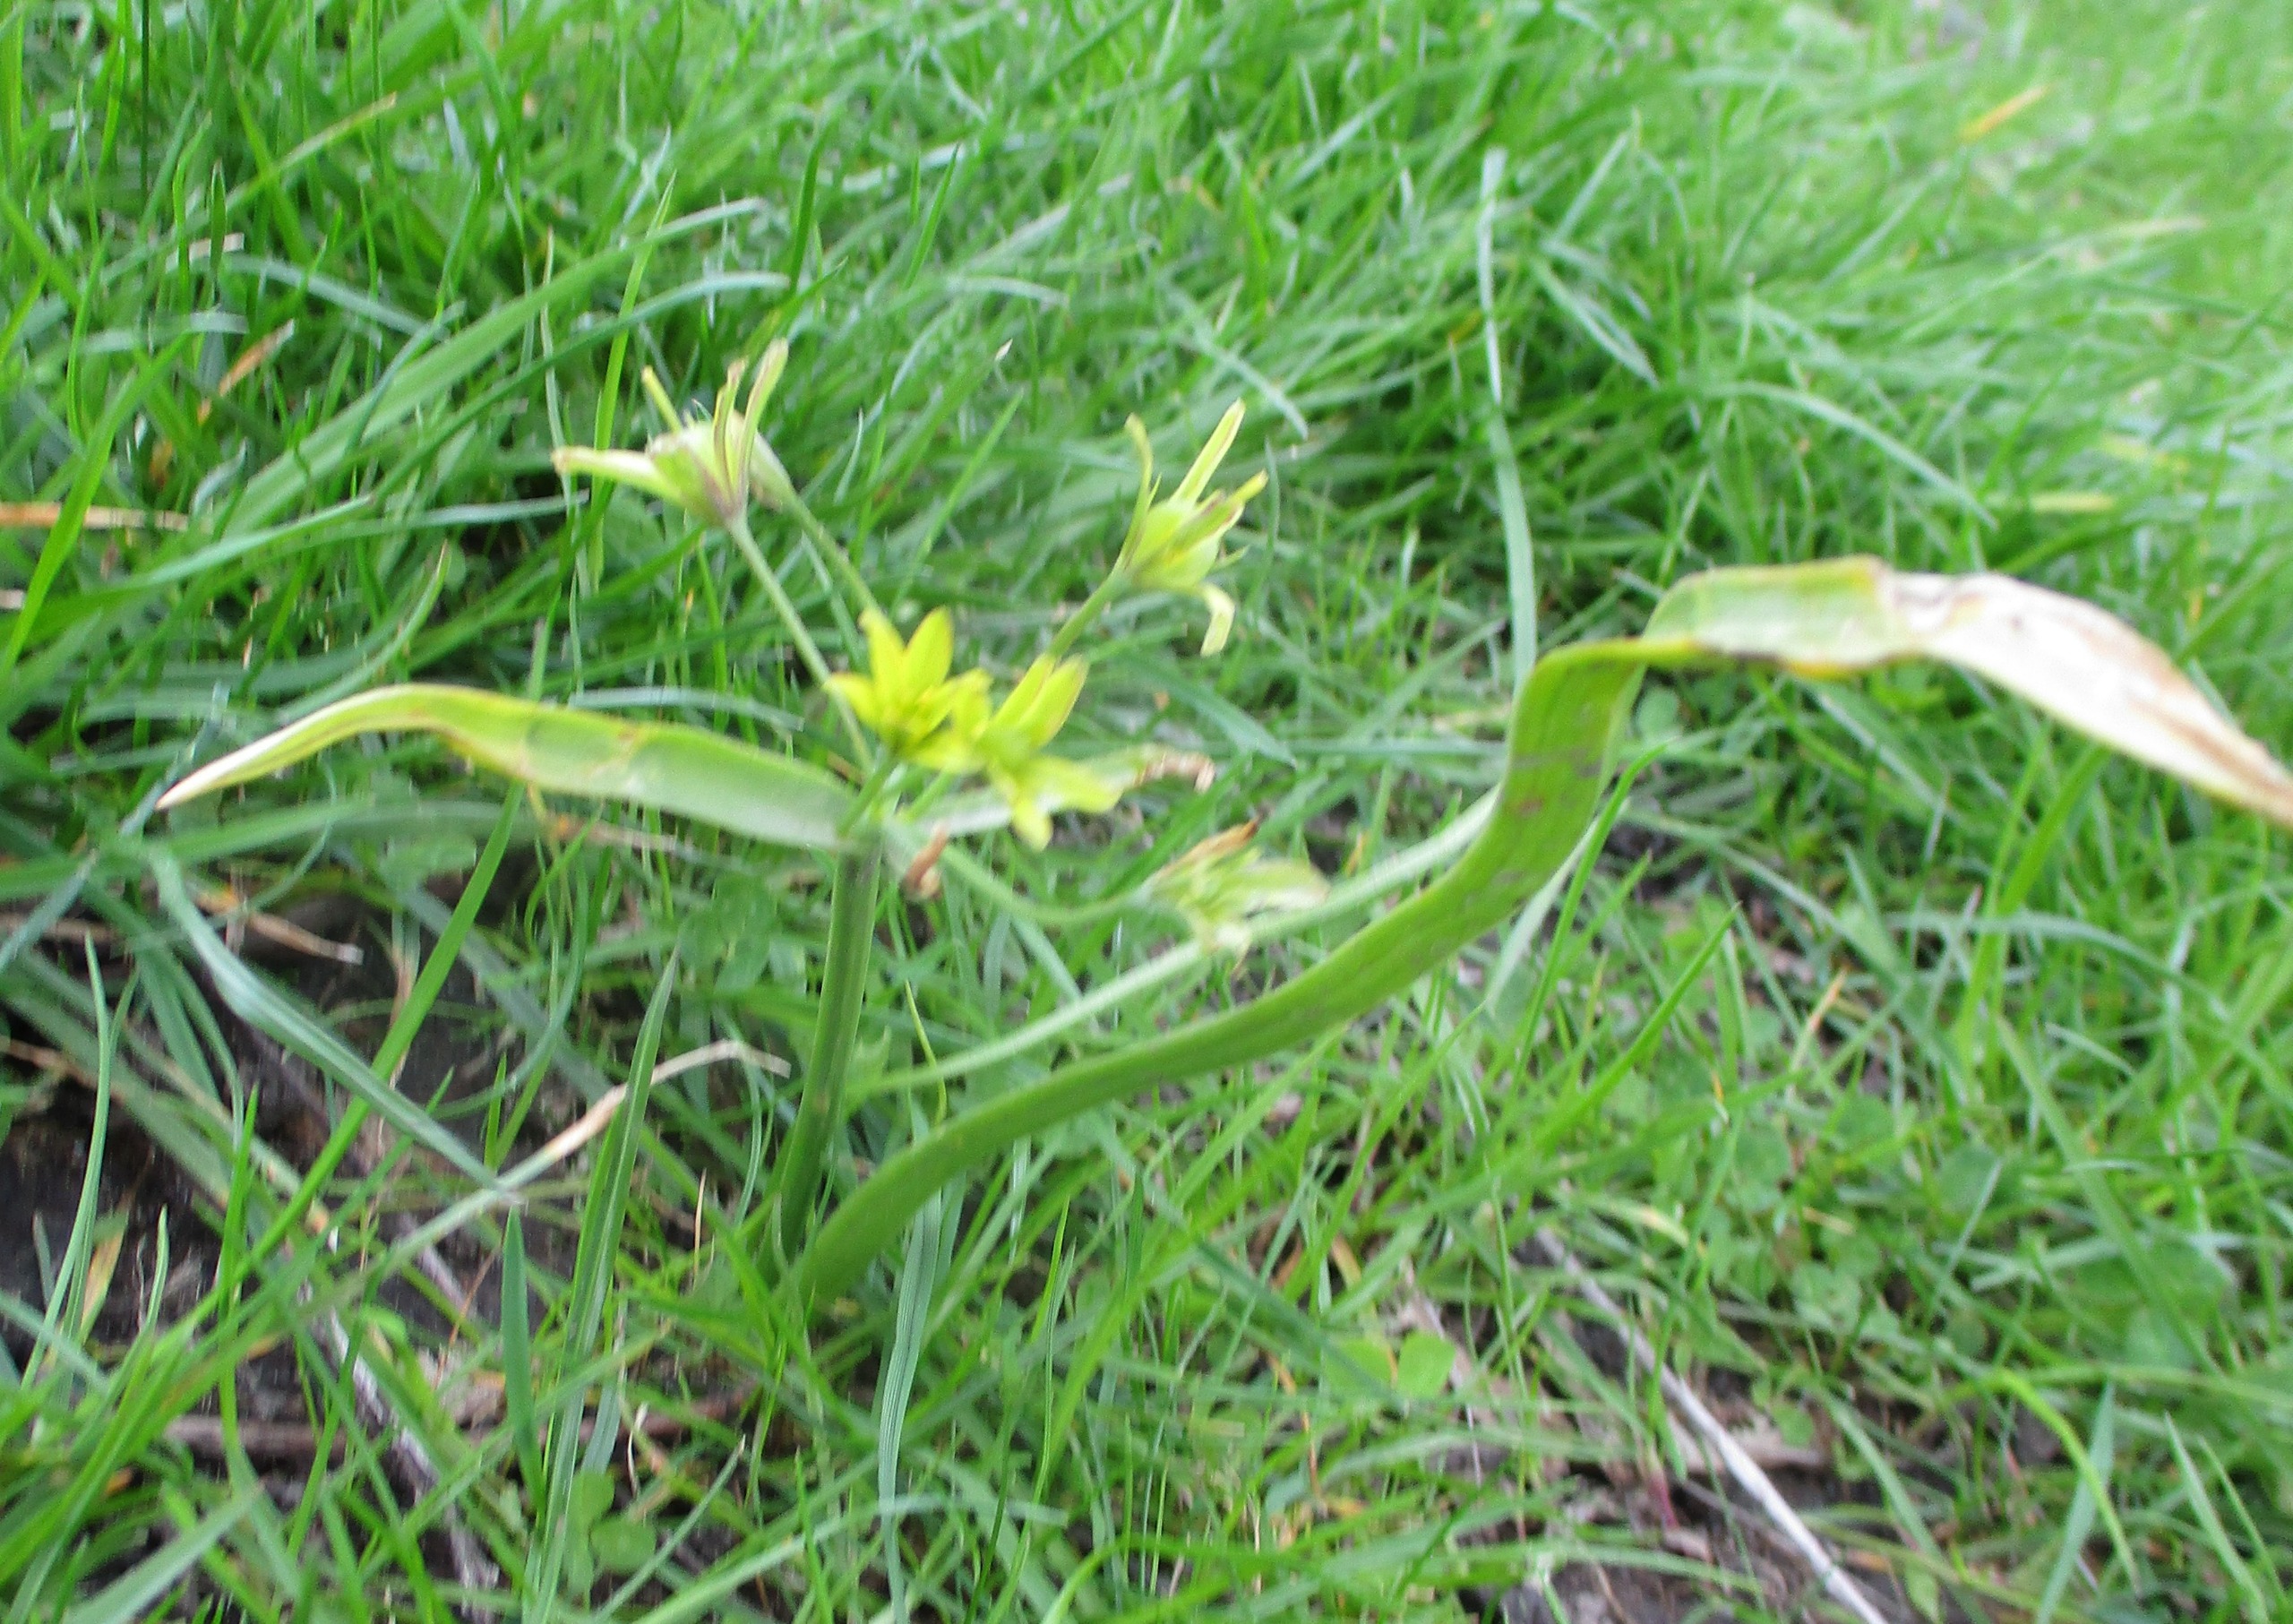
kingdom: Plantae
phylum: Tracheophyta
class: Liliopsida
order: Liliales
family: Liliaceae
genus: Gagea
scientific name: Gagea lutea
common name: Almindelig guldstjerne
